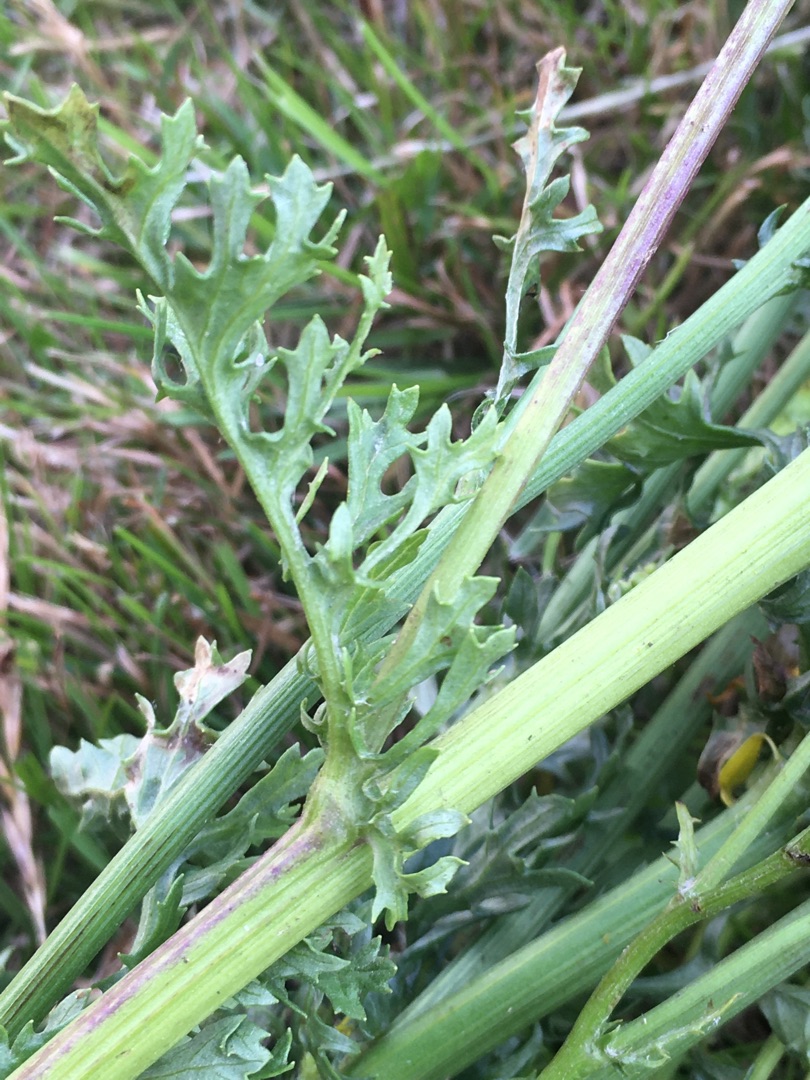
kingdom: Plantae
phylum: Tracheophyta
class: Magnoliopsida
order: Asterales
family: Asteraceae
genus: Jacobaea
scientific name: Jacobaea vulgaris
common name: Eng-brandbæger
